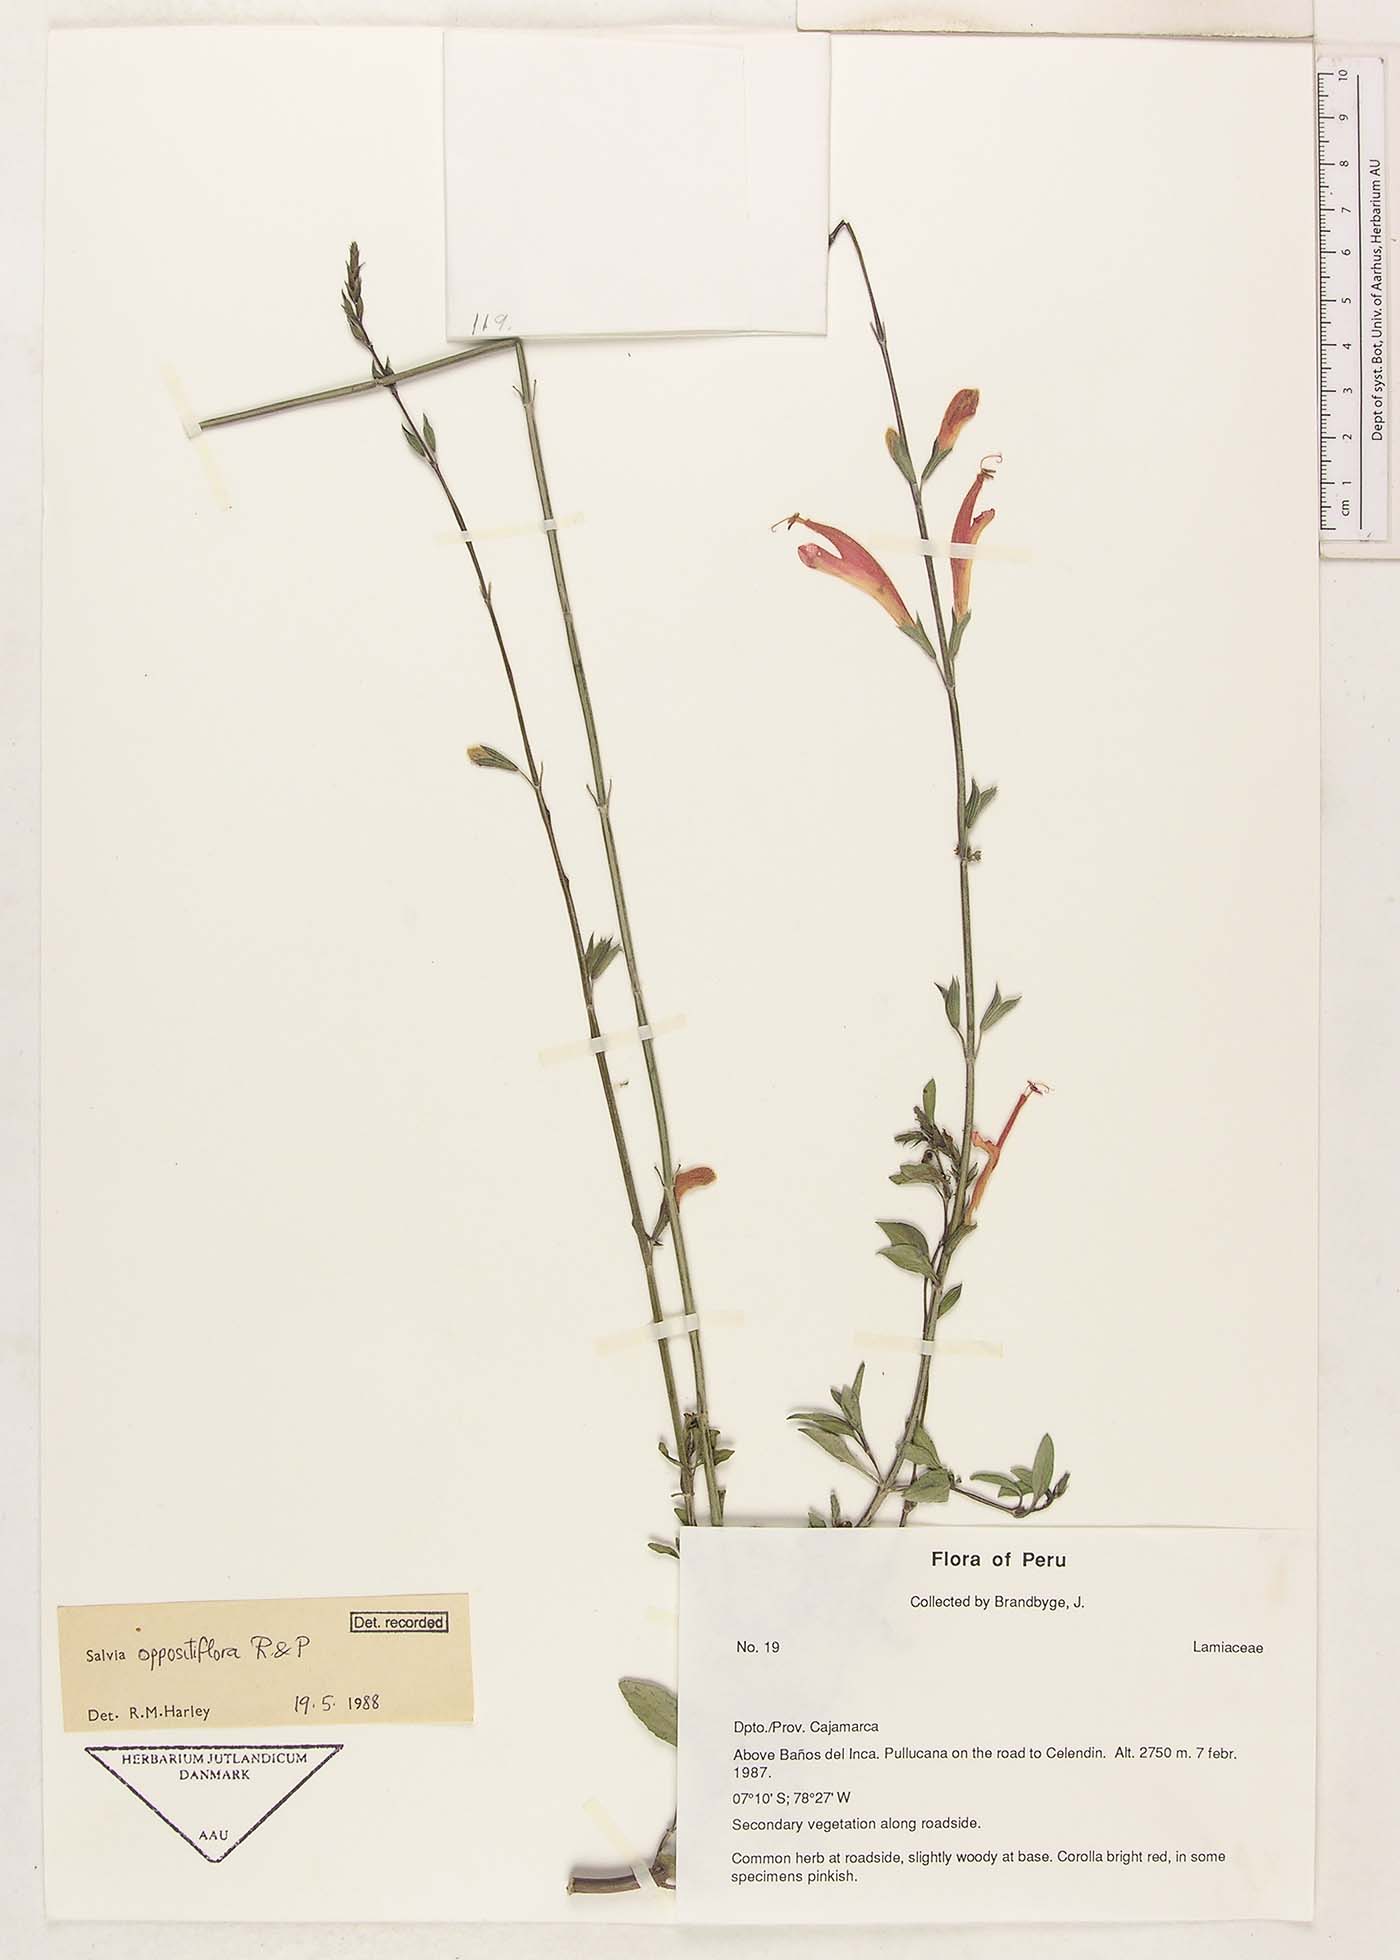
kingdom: Plantae
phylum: Tracheophyta
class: Magnoliopsida
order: Lamiales
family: Lamiaceae
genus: Salvia
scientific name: Salvia oppositiflora
